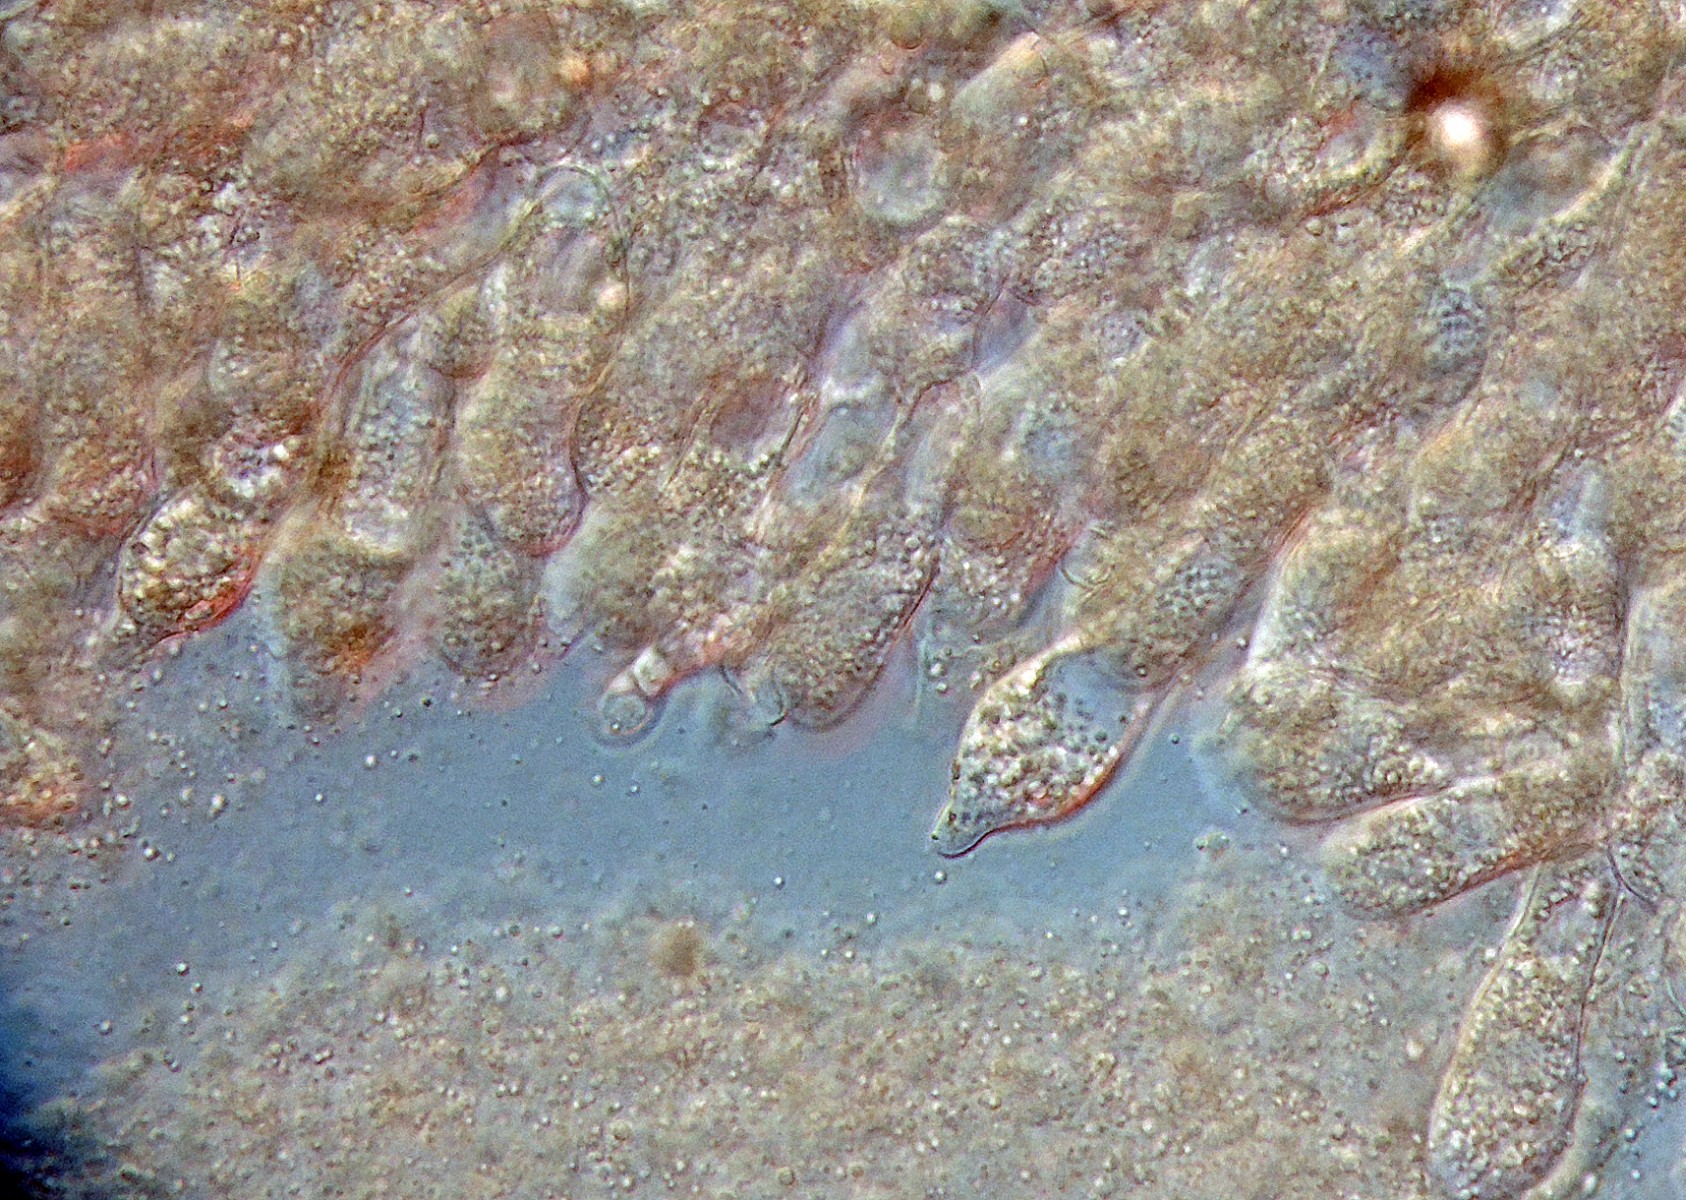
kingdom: Fungi
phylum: Entomophthoromycota
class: Entomophthoromycetes
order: Entomophthorales
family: Entomophthoraceae
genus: Pandora
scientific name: Pandora neoaphidis
